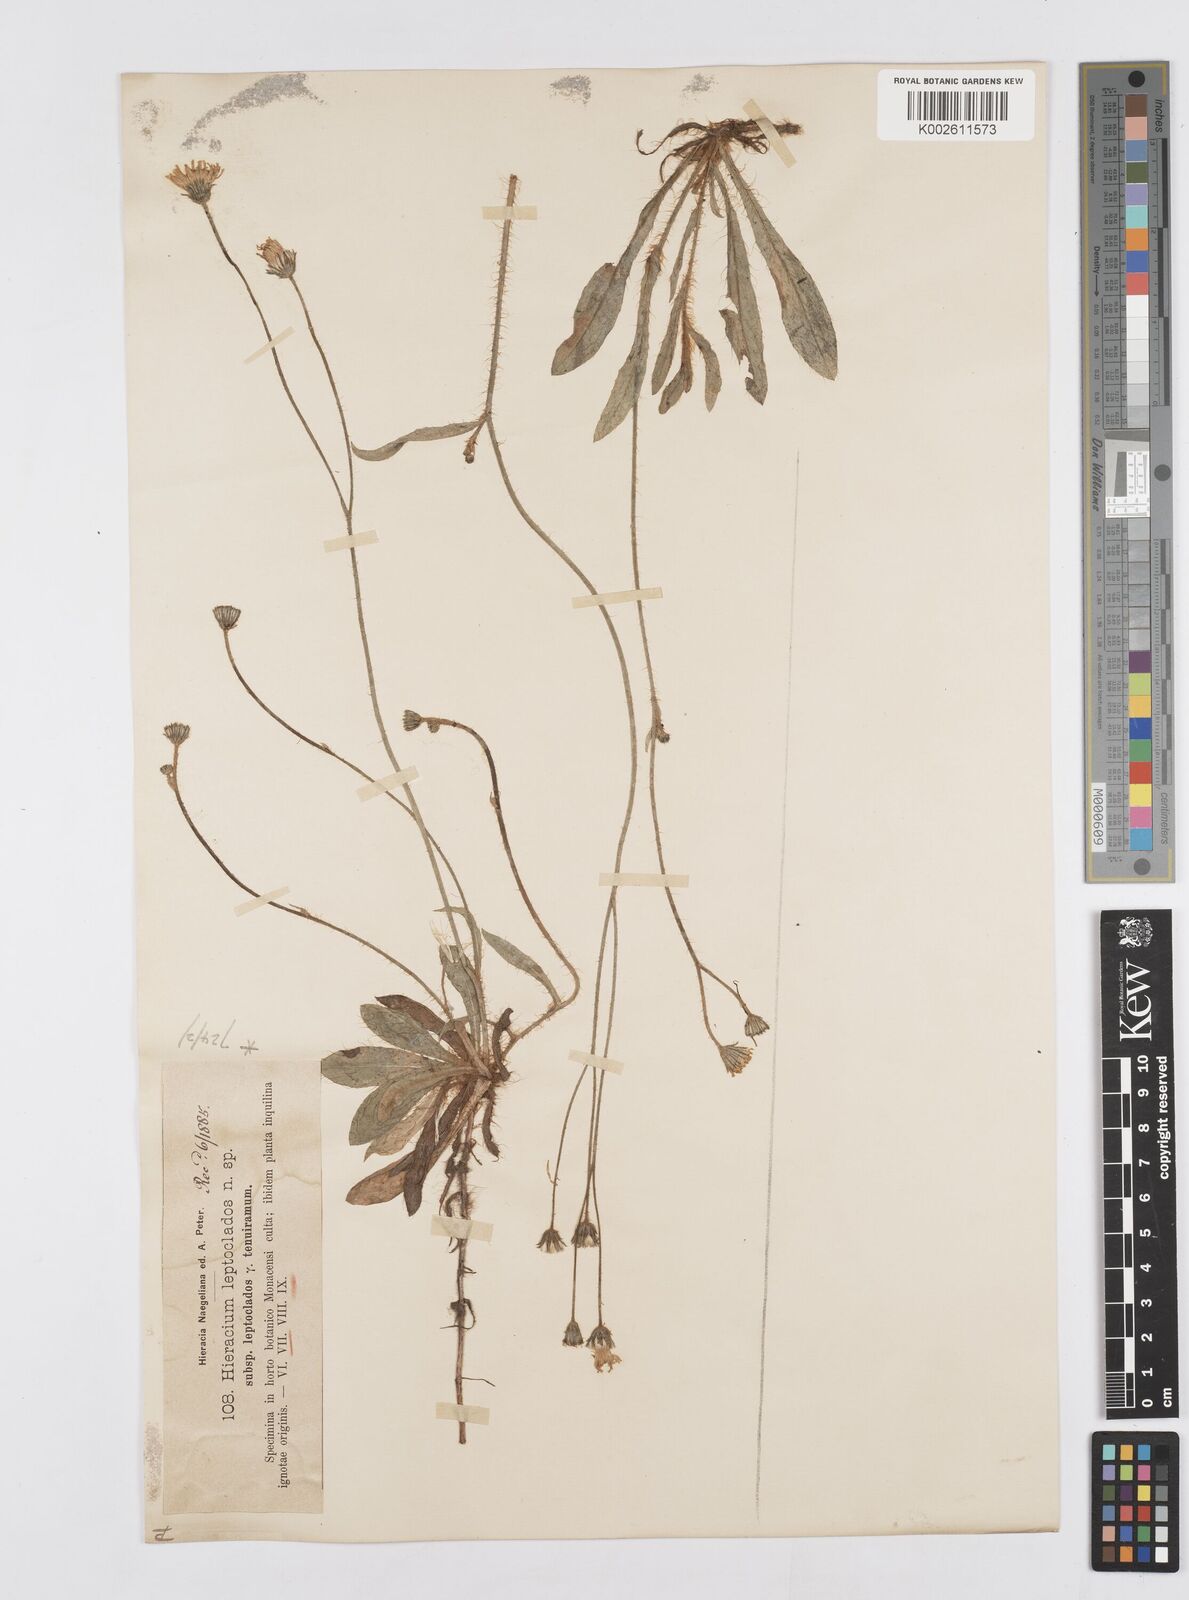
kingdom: Plantae
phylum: Tracheophyta
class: Magnoliopsida
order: Asterales
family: Asteraceae
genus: Pilosella
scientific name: Pilosella leptoclados
